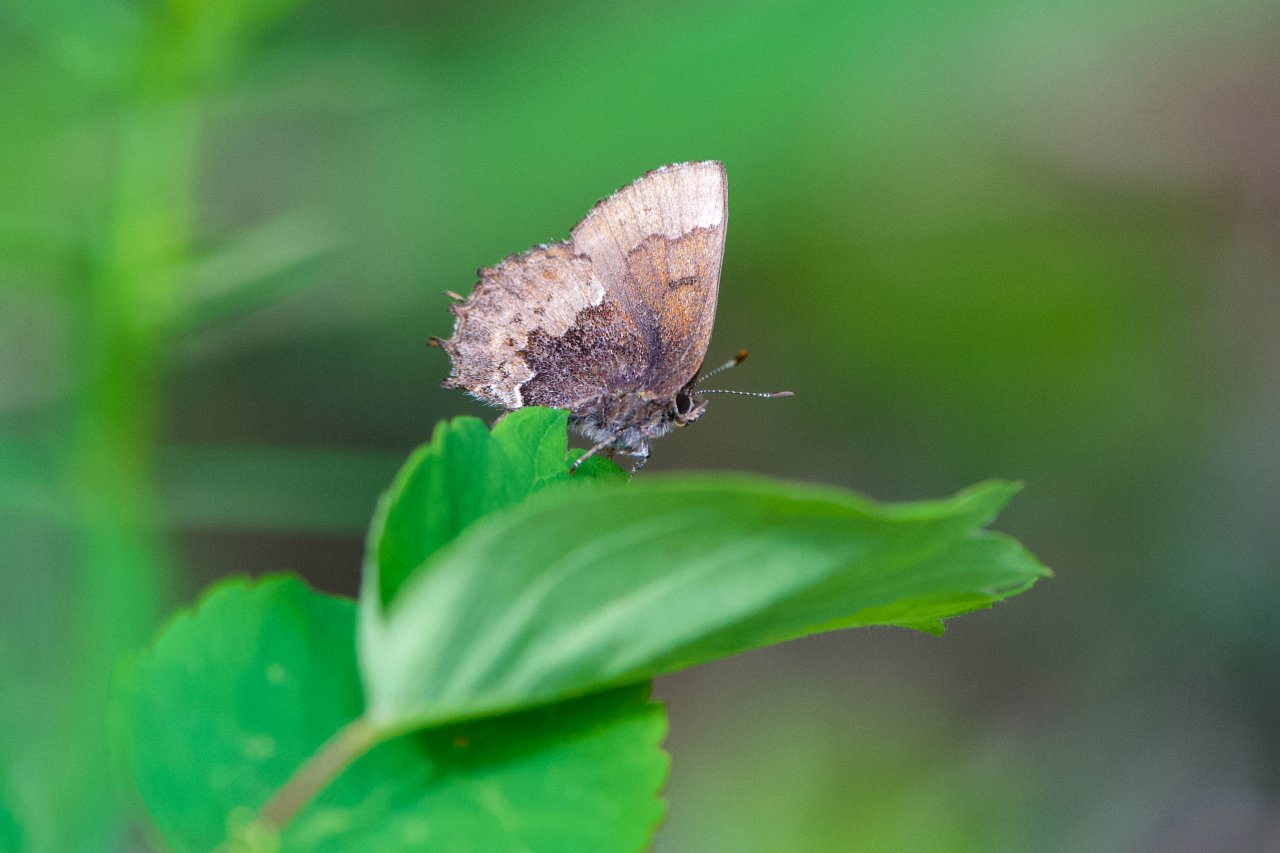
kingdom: Animalia
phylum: Arthropoda
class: Insecta
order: Lepidoptera
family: Lycaenidae
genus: Incisalia
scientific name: Incisalia henrici
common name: Henry's Elfin
